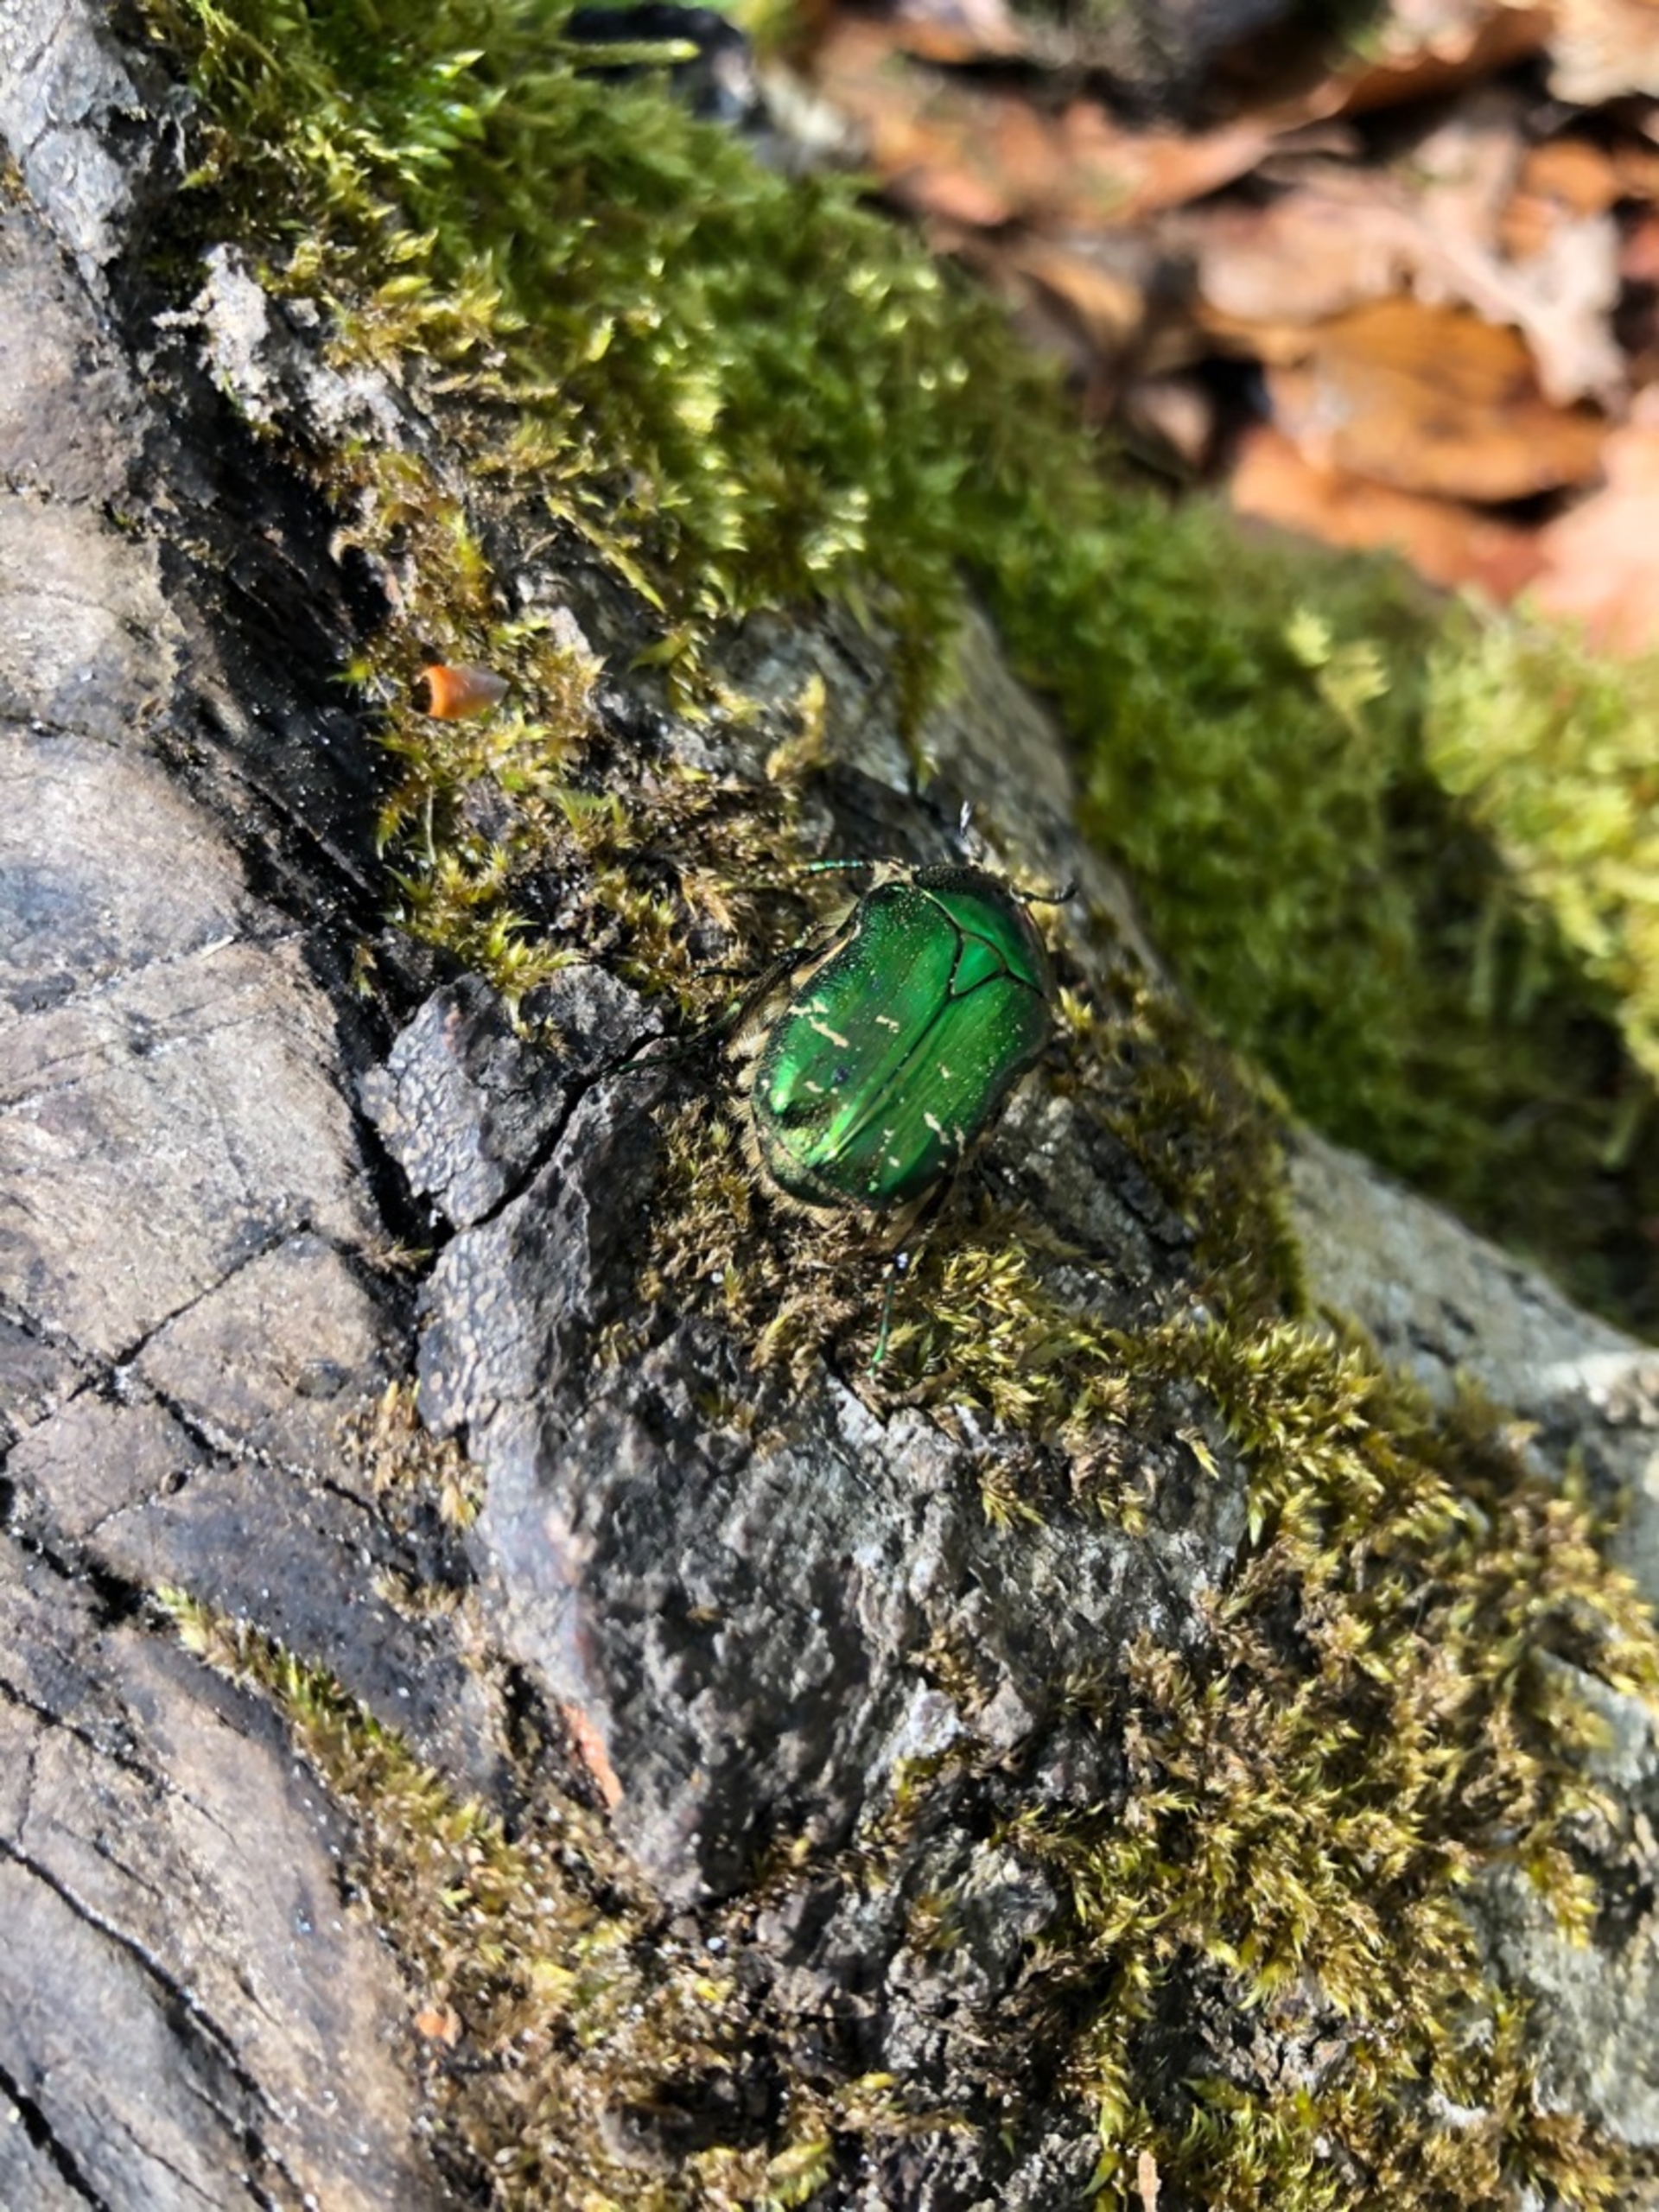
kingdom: Animalia
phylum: Arthropoda
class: Insecta
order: Coleoptera
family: Scarabaeidae
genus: Cetonia
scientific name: Cetonia aurata
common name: Grøn guldbasse
